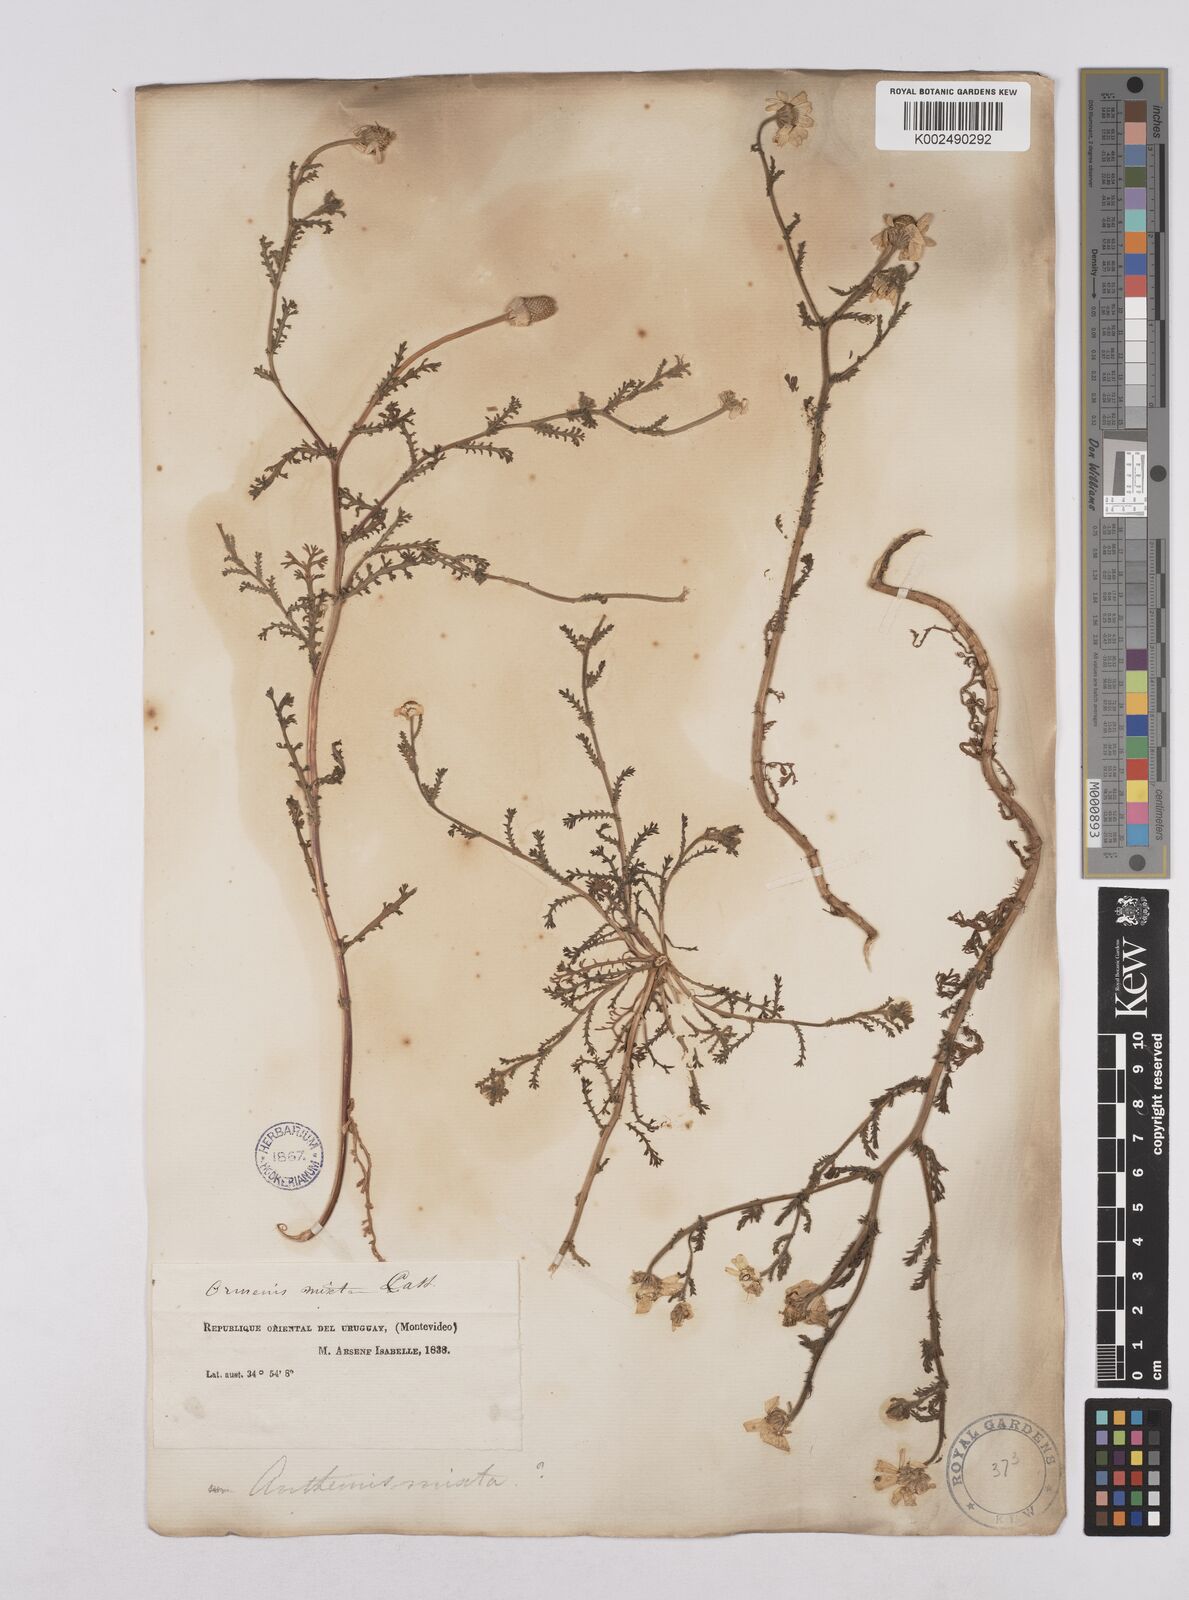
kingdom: Plantae
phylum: Tracheophyta
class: Magnoliopsida
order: Asterales
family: Asteraceae
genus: Cladanthus
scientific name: Cladanthus mixtus
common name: Weedy dogfennel
